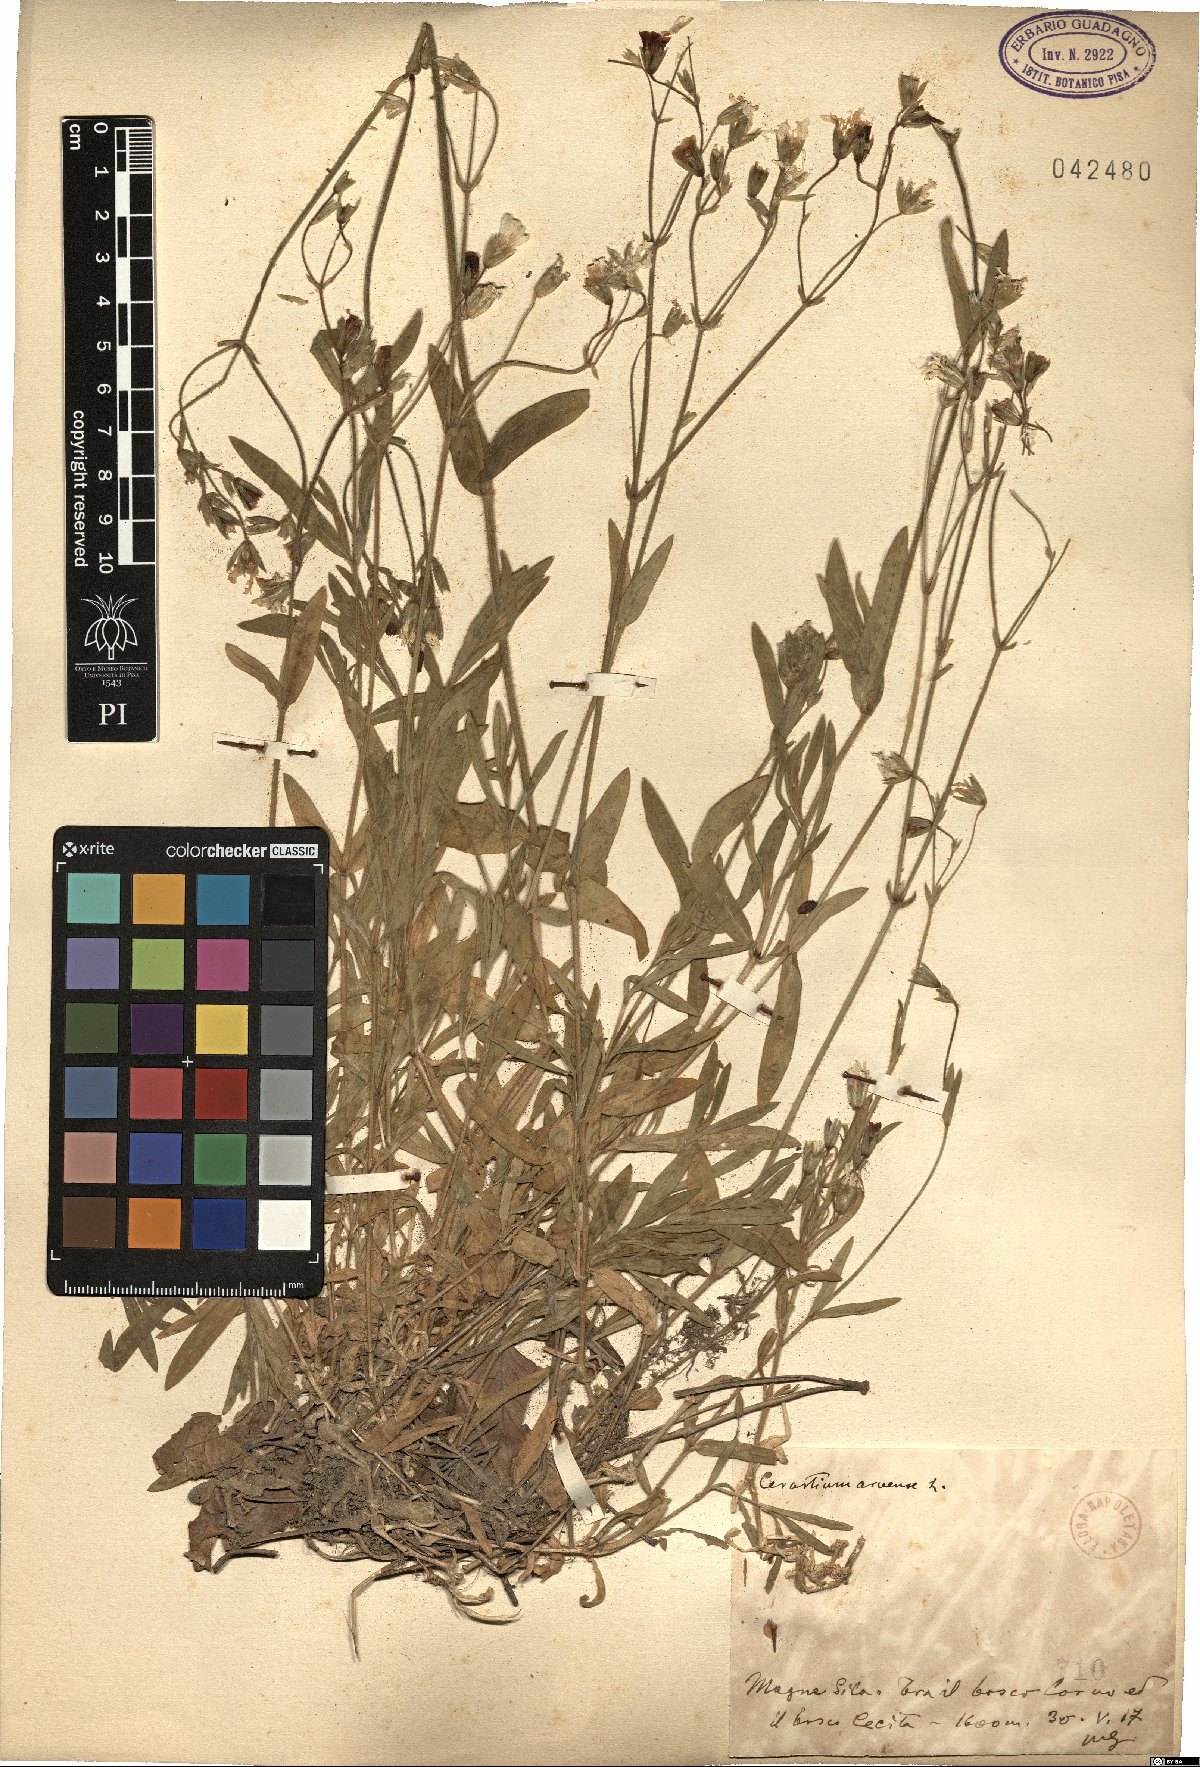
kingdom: Plantae
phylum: Tracheophyta
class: Magnoliopsida
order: Caryophyllales
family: Caryophyllaceae
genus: Cerastium
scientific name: Cerastium arvense
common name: Field mouse-ear
